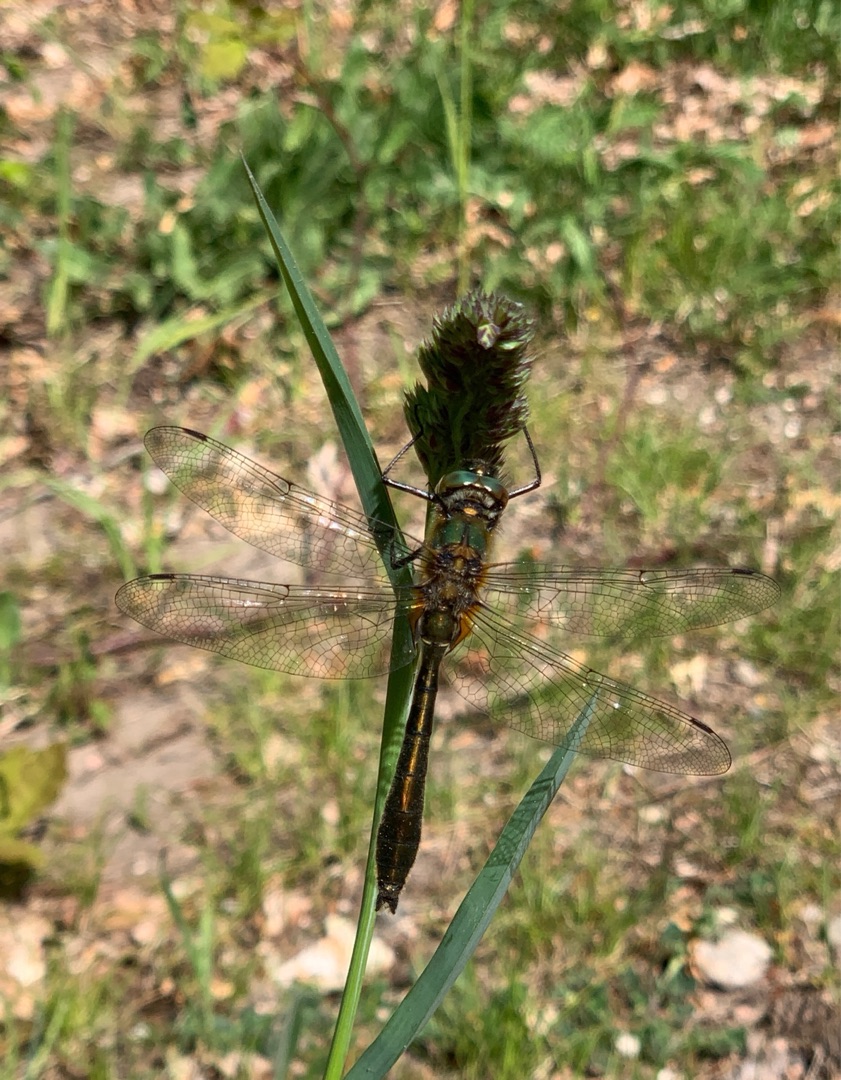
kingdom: Animalia
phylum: Arthropoda
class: Insecta
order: Odonata
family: Corduliidae
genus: Cordulia
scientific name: Cordulia aenea
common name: Grøn smaragdlibel
